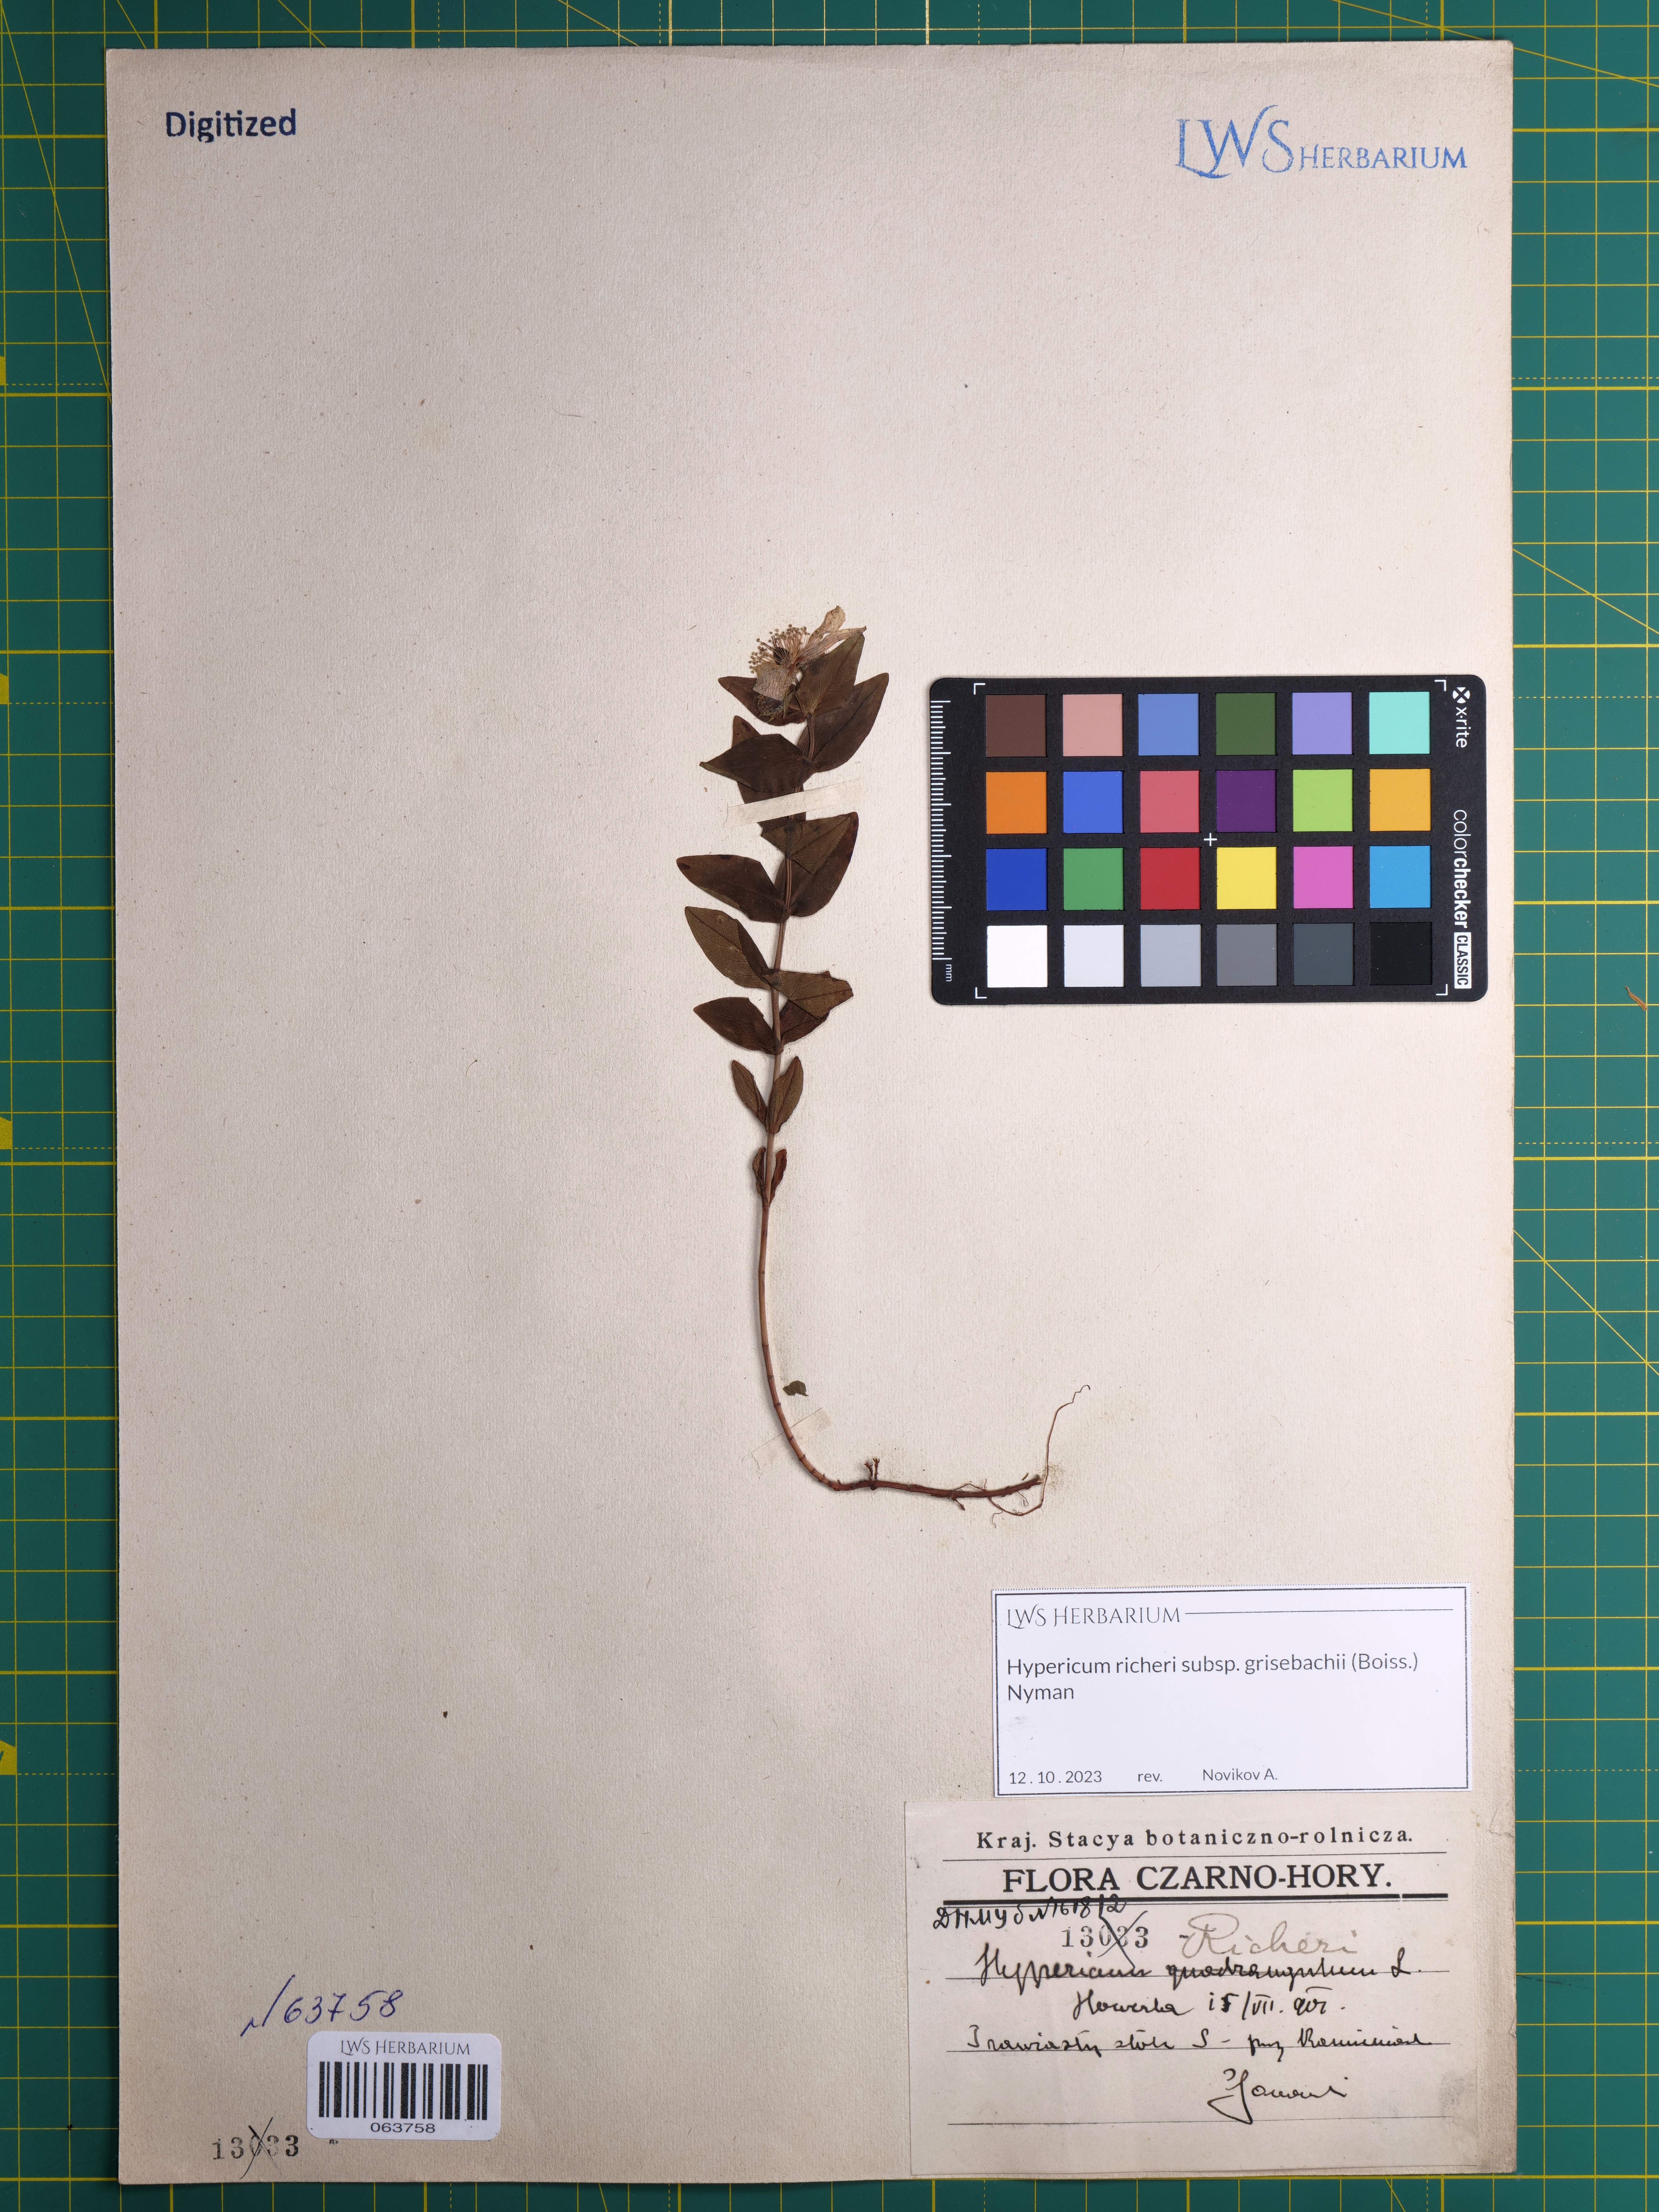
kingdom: Plantae
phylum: Tracheophyta
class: Magnoliopsida
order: Malpighiales
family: Hypericaceae
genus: Hypericum
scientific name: Hypericum richeri
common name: Alpine st john's-wort
